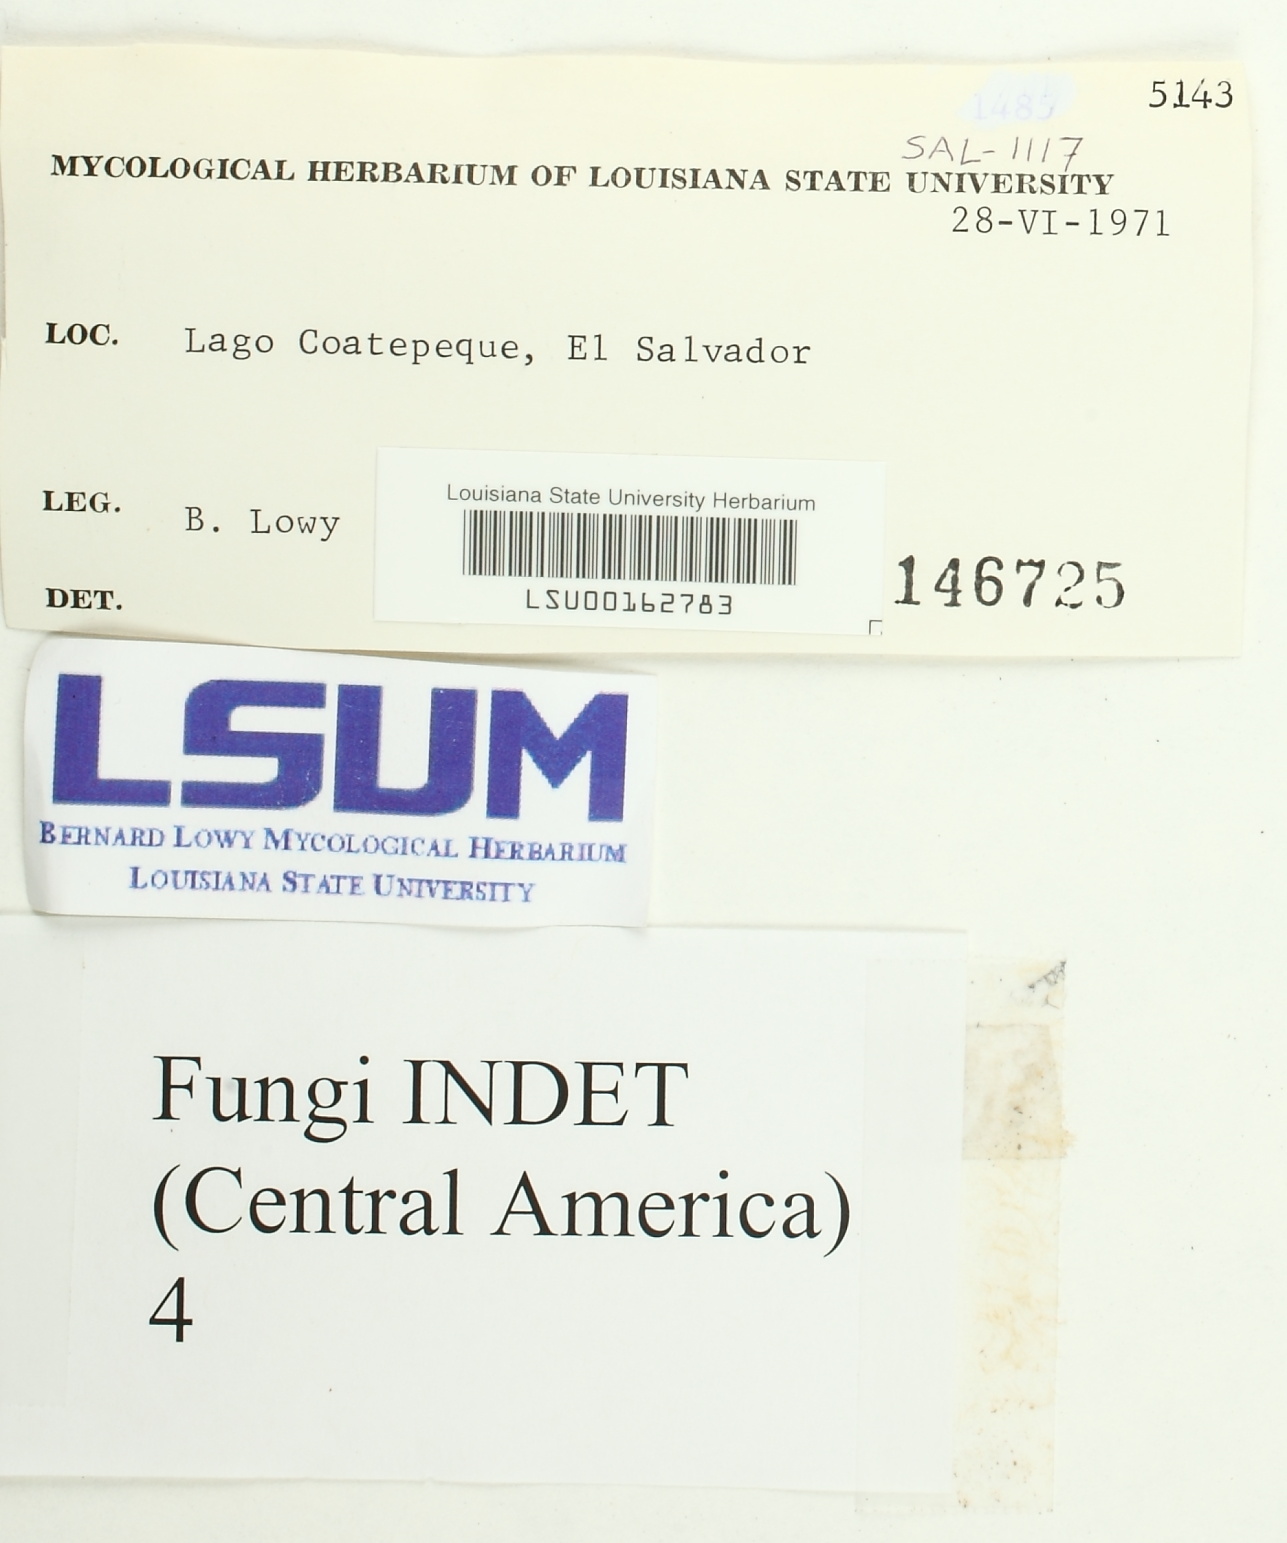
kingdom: Fungi
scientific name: Fungi
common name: Fungi
